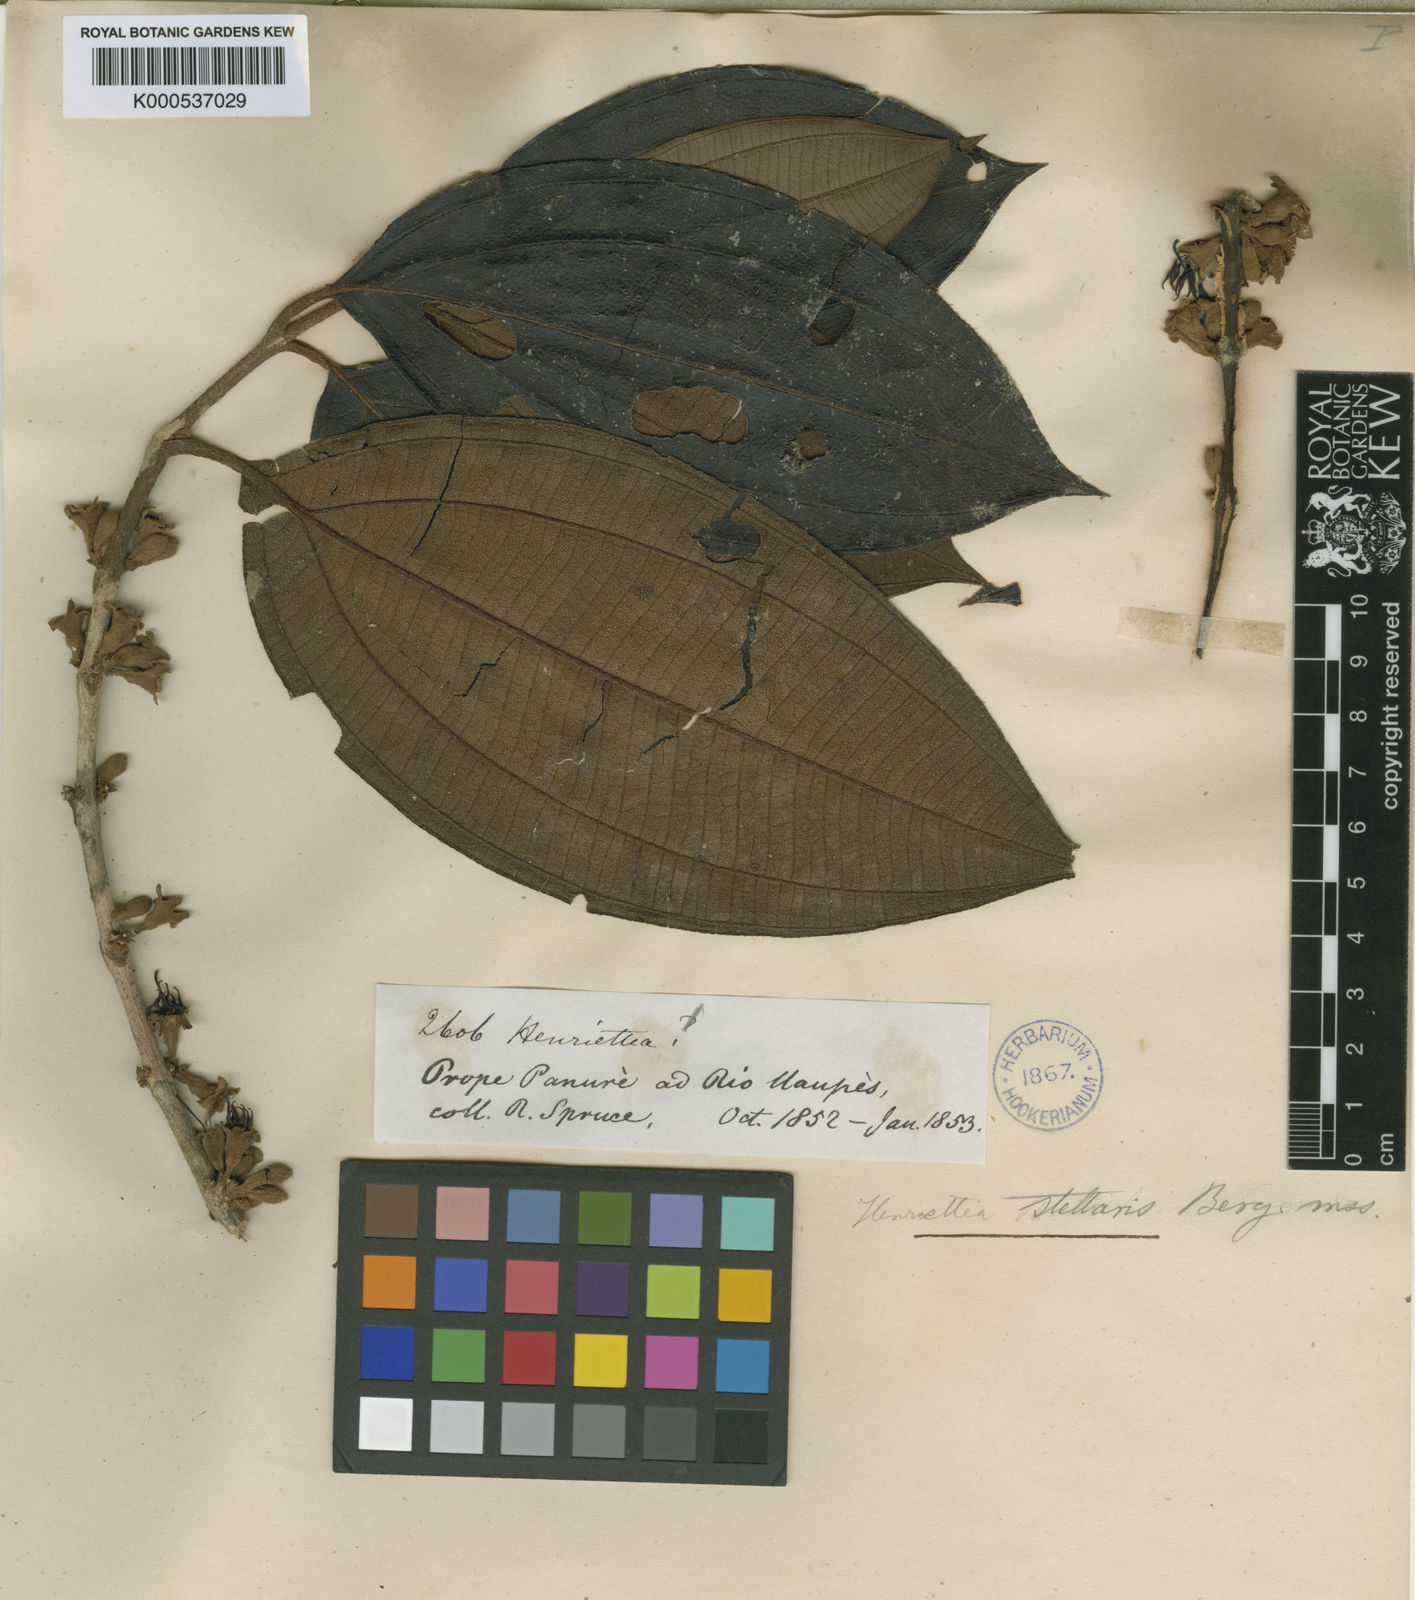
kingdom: Plantae
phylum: Tracheophyta
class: Magnoliopsida
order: Myrtales
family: Melastomataceae
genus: Henriettea
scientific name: Henriettea stellaris
